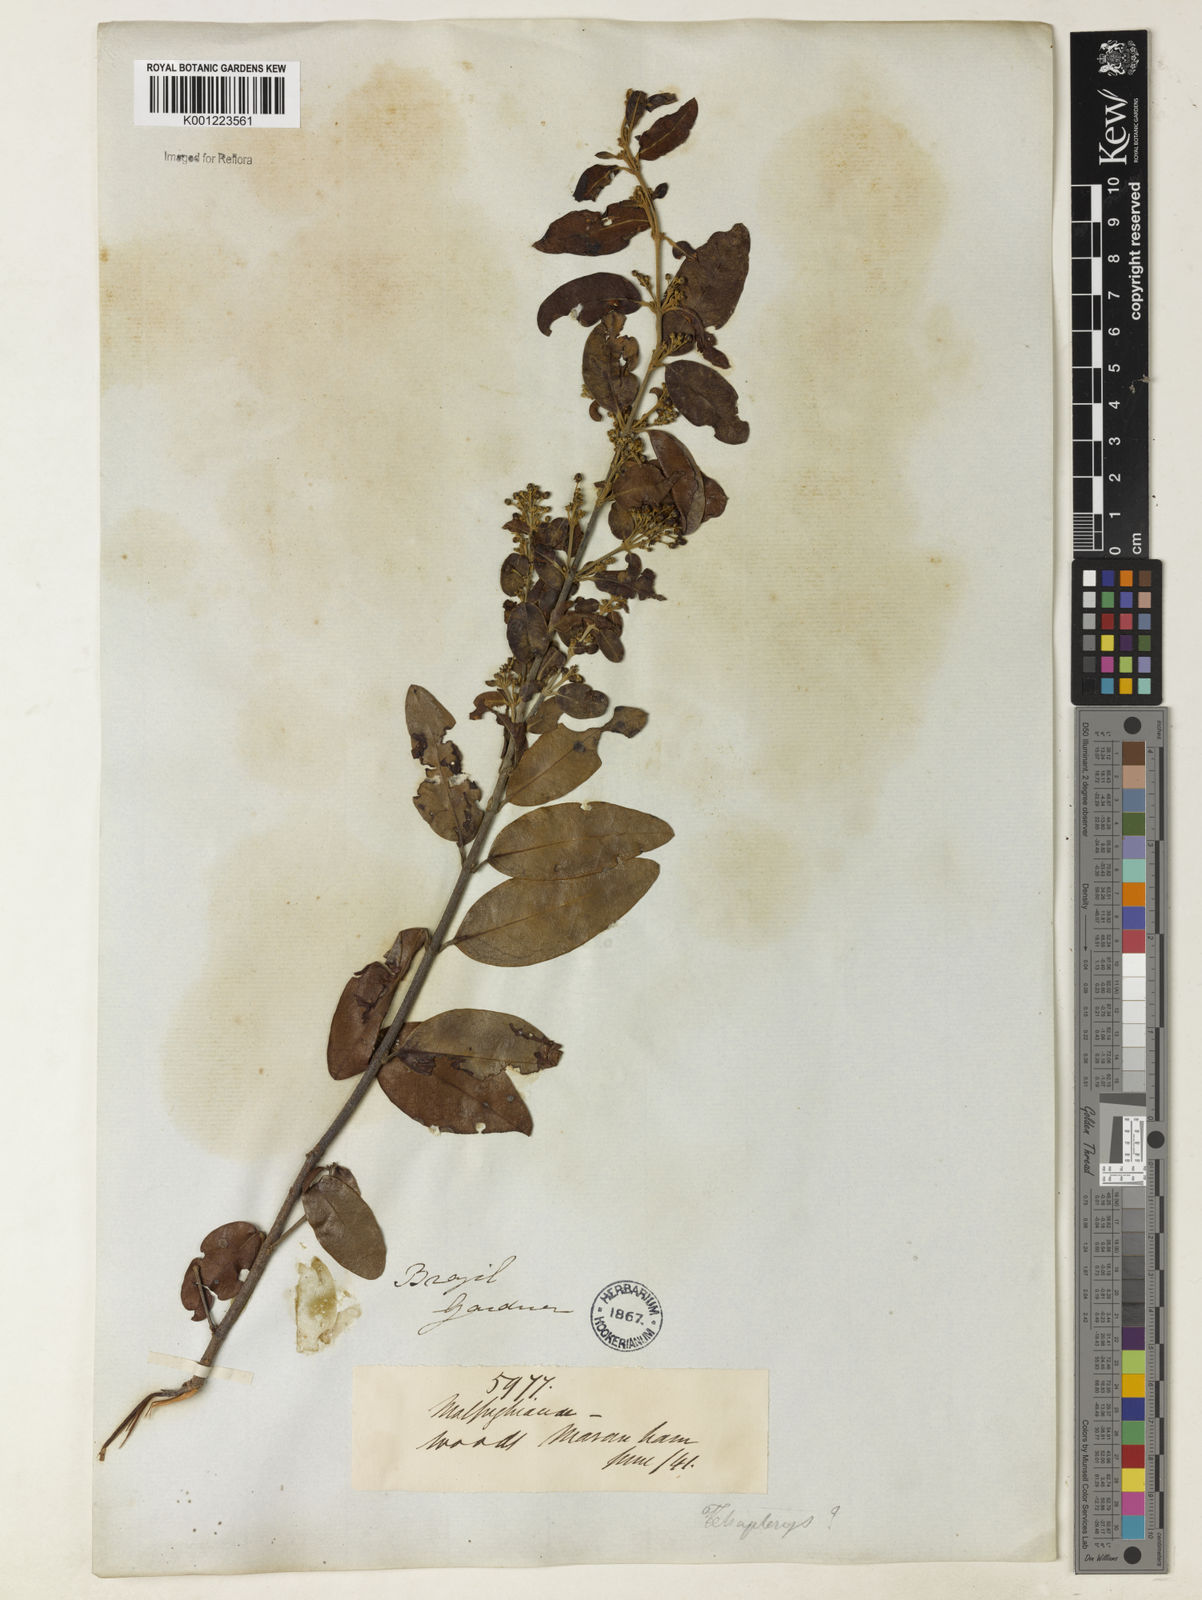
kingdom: Plantae
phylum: Tracheophyta
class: Magnoliopsida
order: Malpighiales
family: Malpighiaceae
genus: Heteropterys
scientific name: Heteropterys trichanthera
